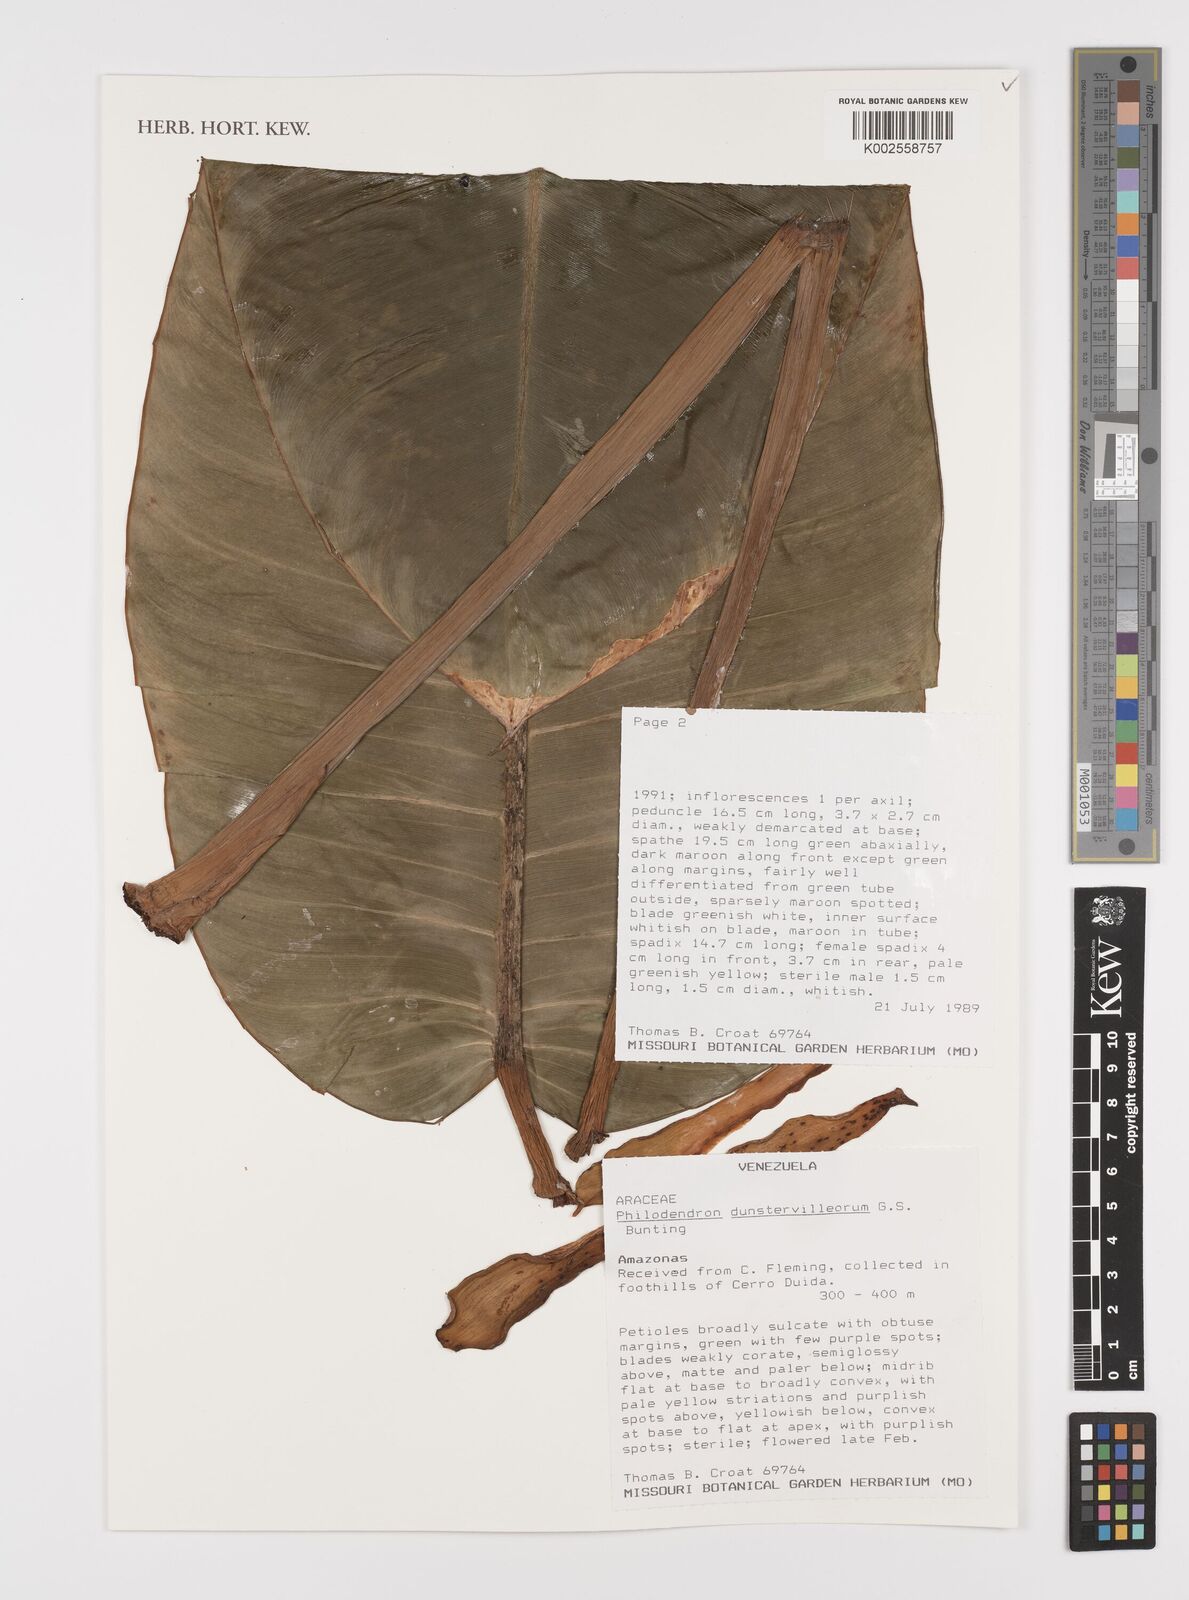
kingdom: Plantae
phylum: Tracheophyta
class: Liliopsida
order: Alismatales
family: Araceae
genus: Philodendron
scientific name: Philodendron dunstervilleorum
